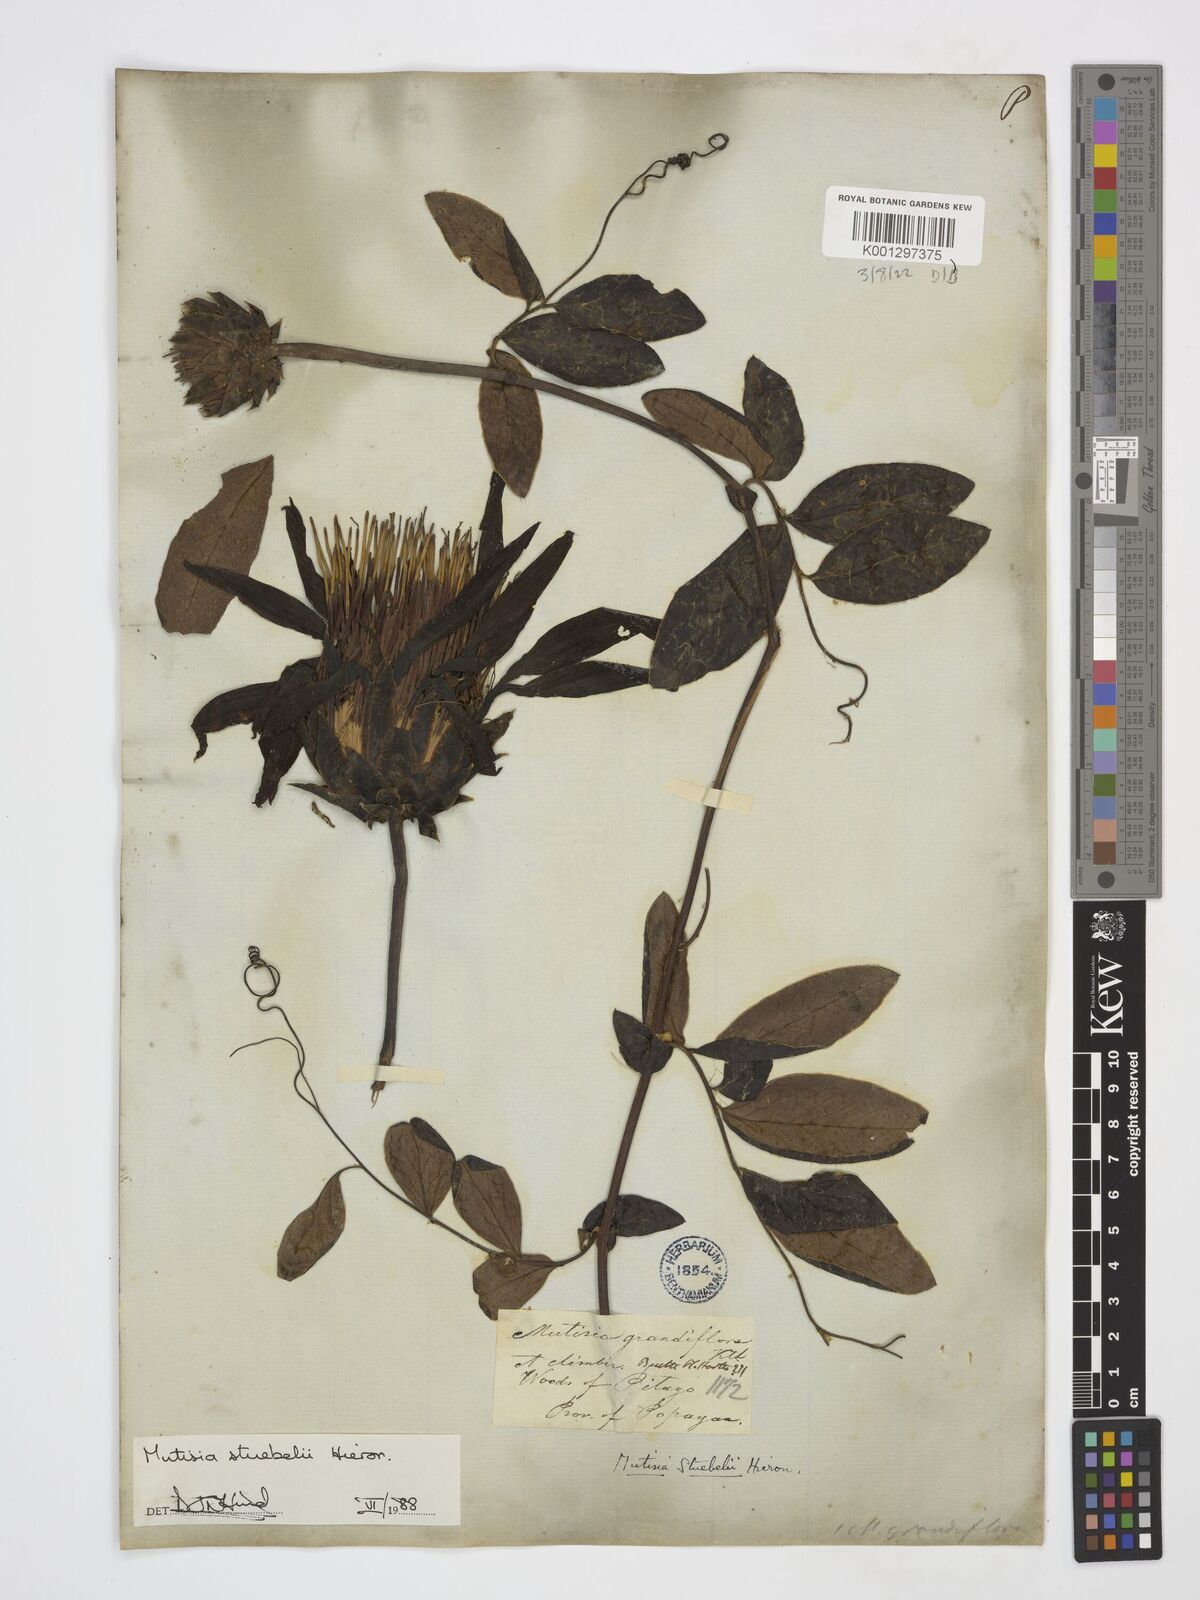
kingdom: Plantae
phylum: Tracheophyta
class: Magnoliopsida
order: Asterales
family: Asteraceae
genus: Mutisia
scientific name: Mutisia stuebelii
